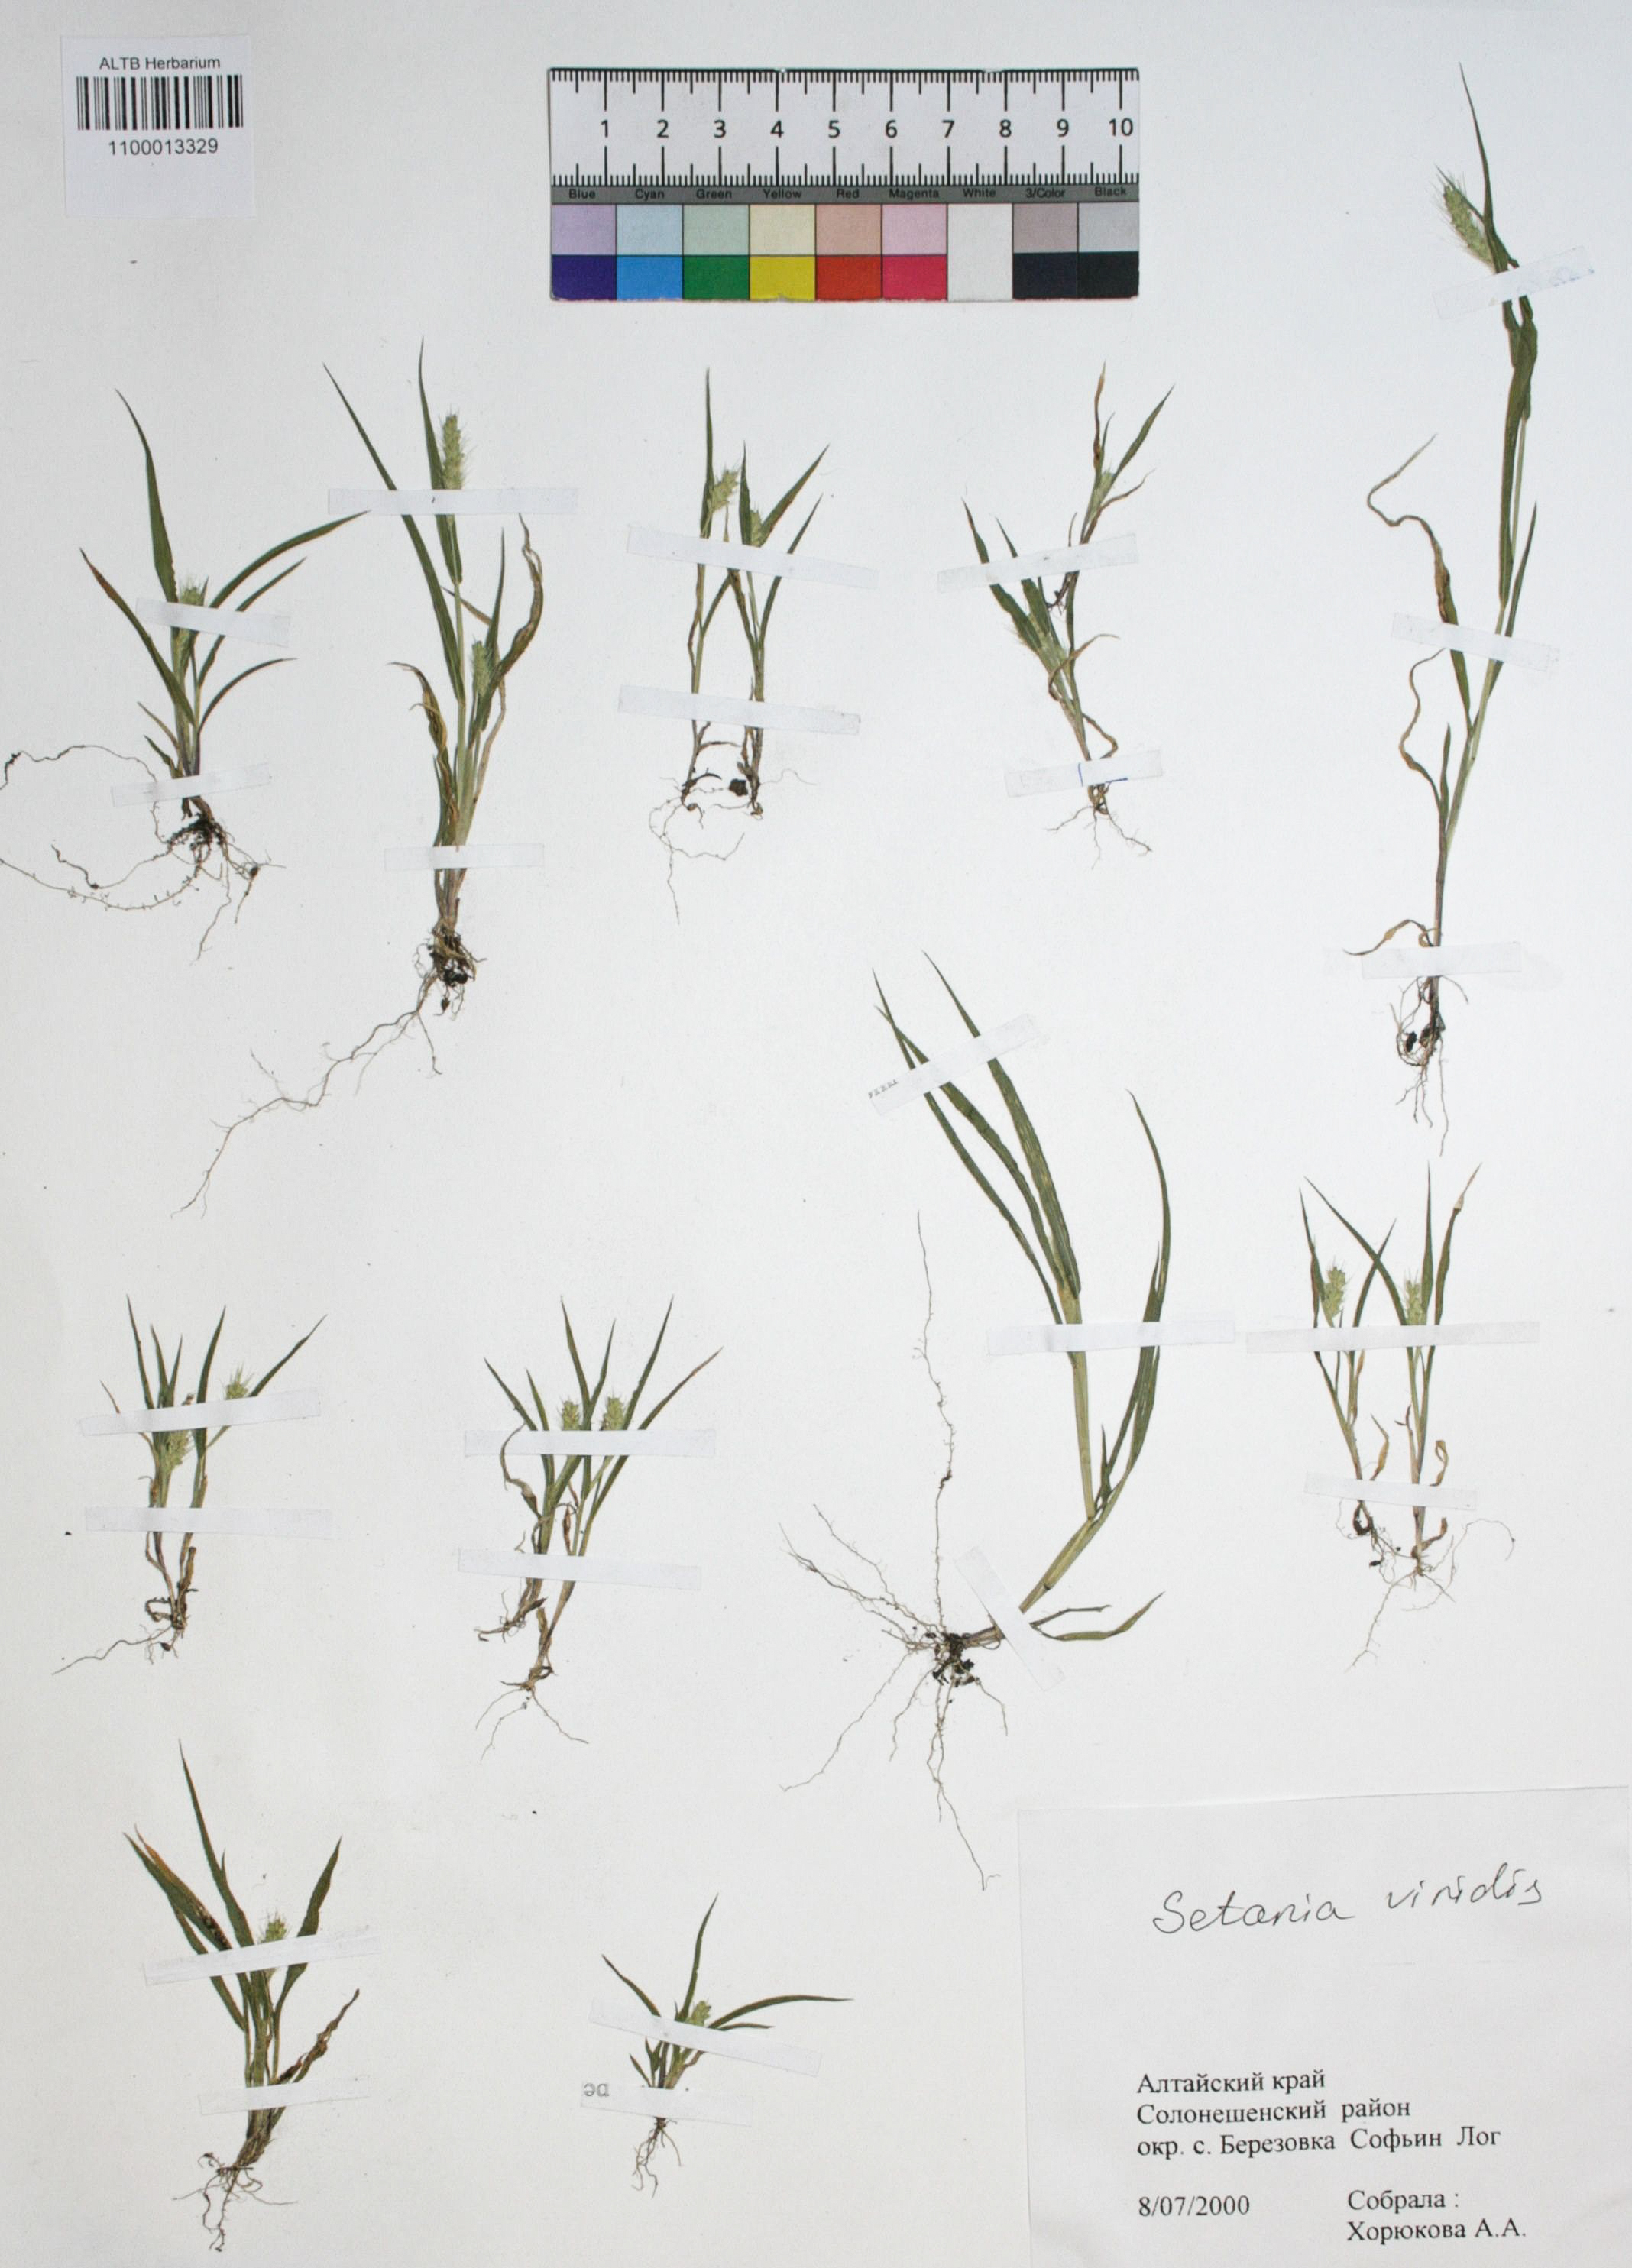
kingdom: Plantae
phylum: Tracheophyta
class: Liliopsida
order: Poales
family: Poaceae
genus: Setaria
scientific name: Setaria viridis
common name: Green bristlegrass
